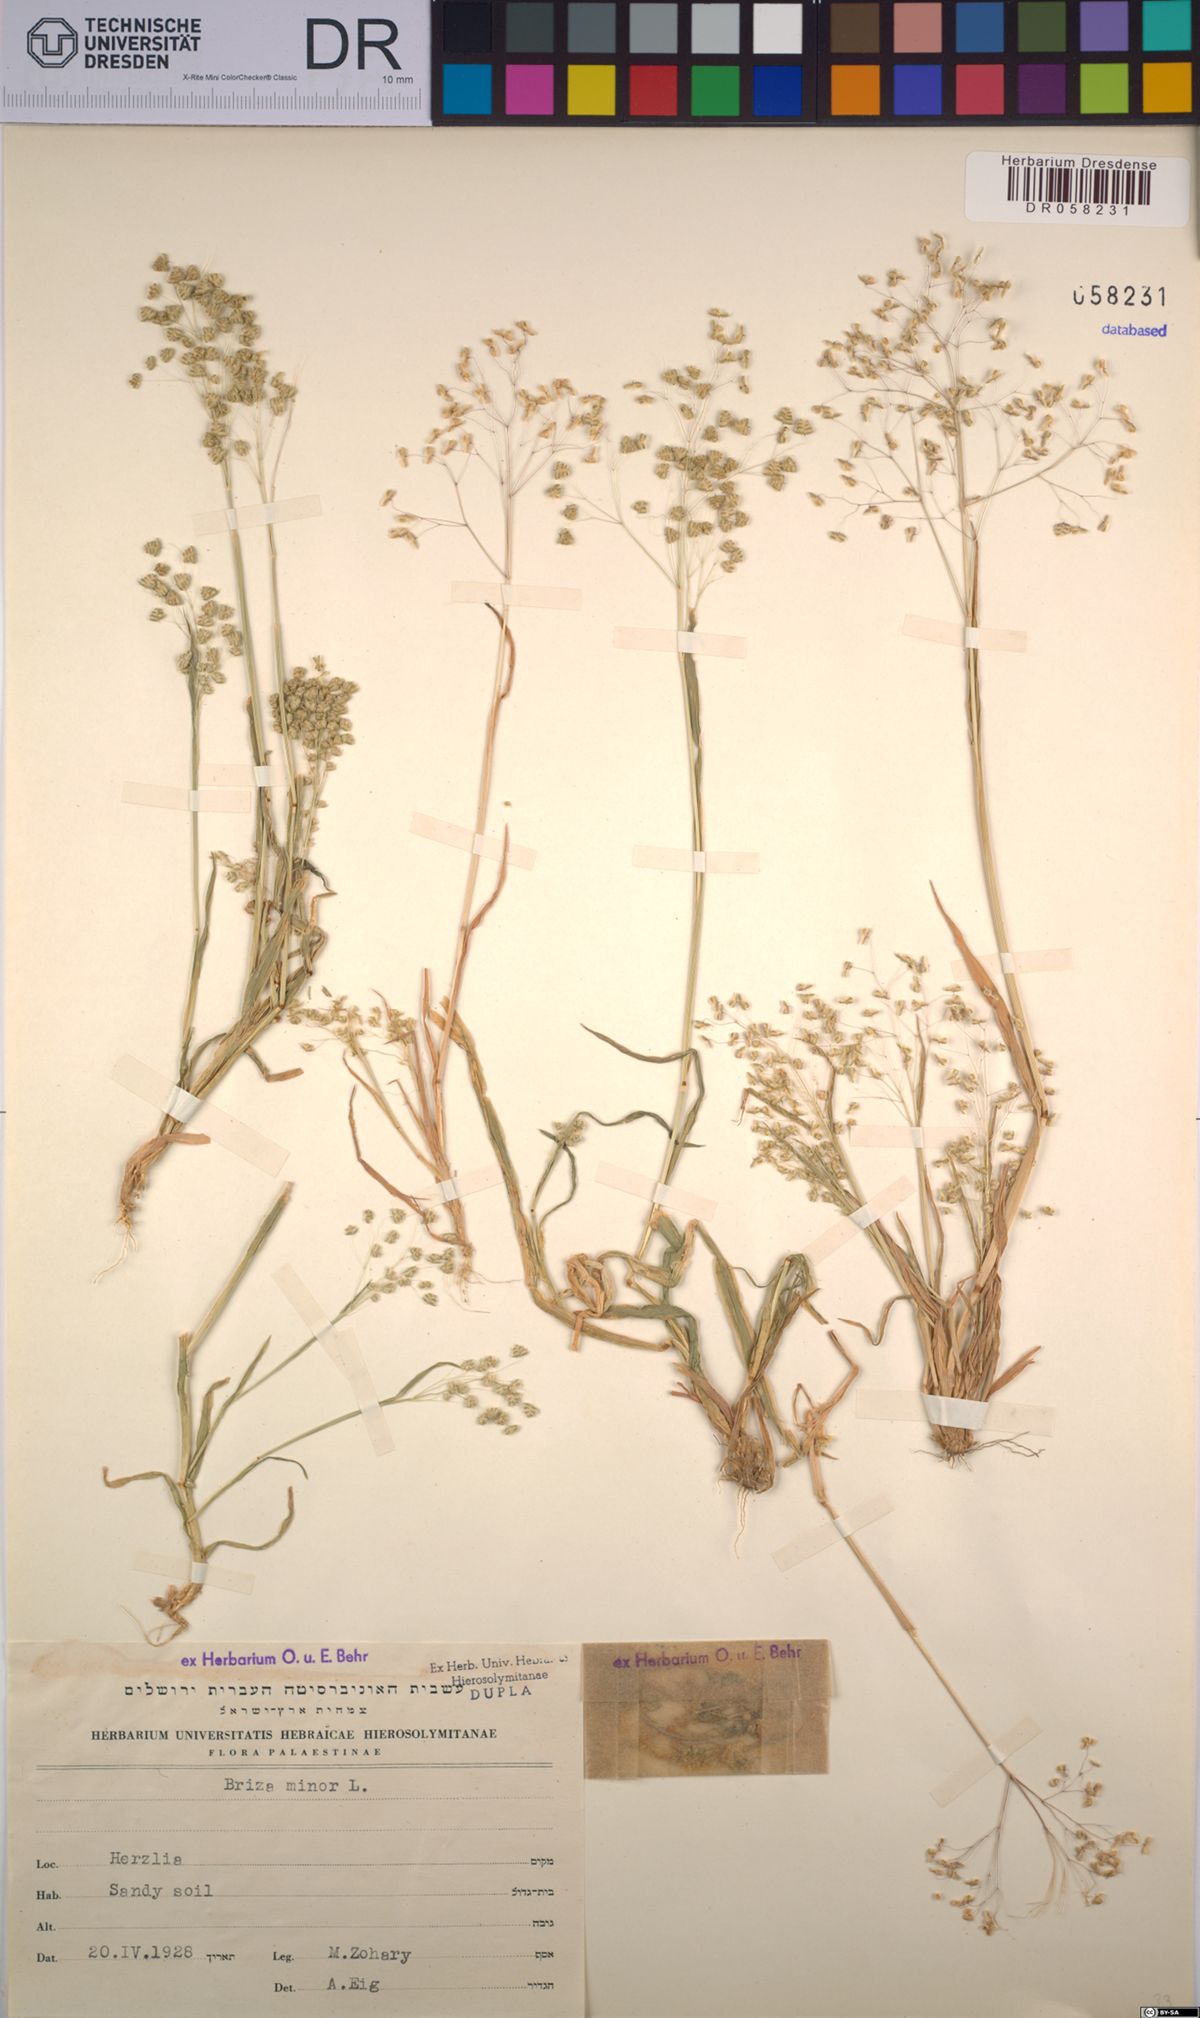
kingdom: Plantae
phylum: Tracheophyta
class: Liliopsida
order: Poales
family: Poaceae
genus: Briza
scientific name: Briza minor
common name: Lesser quaking-grass
